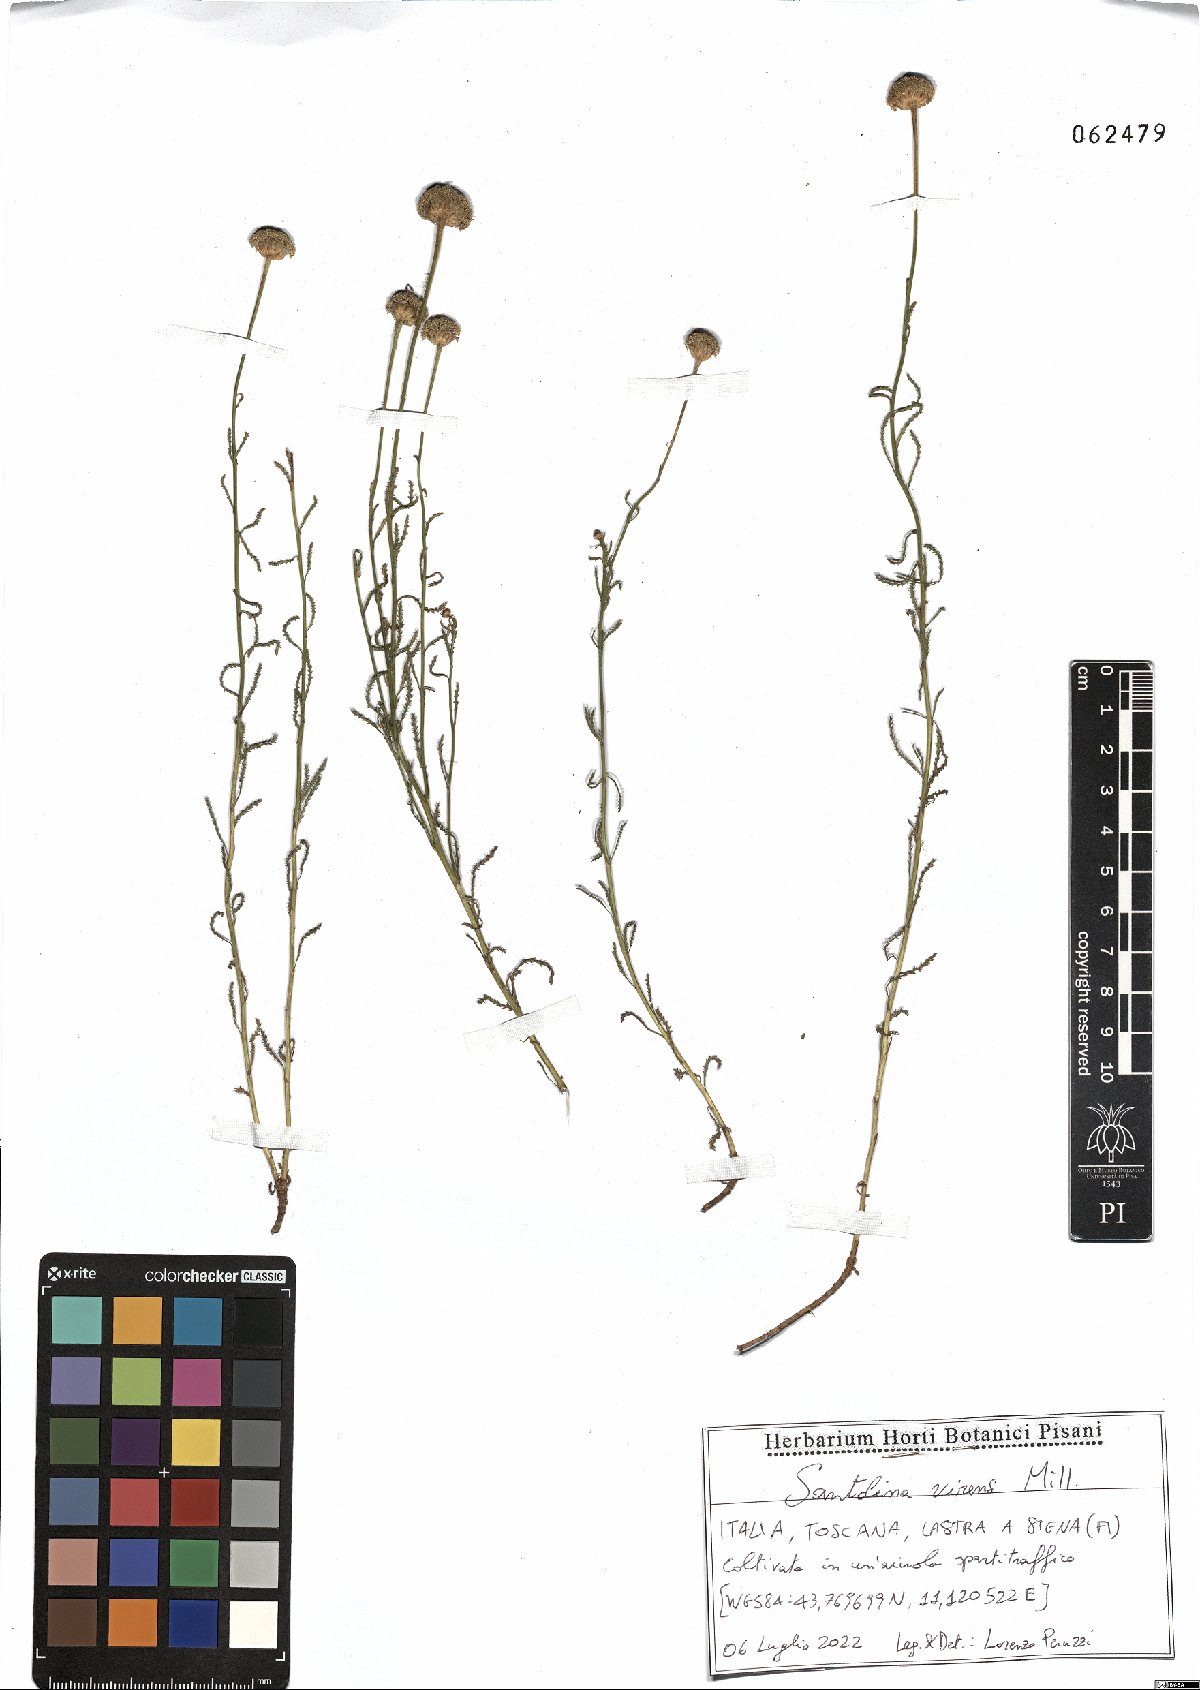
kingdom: Plantae
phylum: Tracheophyta
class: Magnoliopsida
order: Asterales
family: Asteraceae
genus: Santolina
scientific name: Santolina virens
